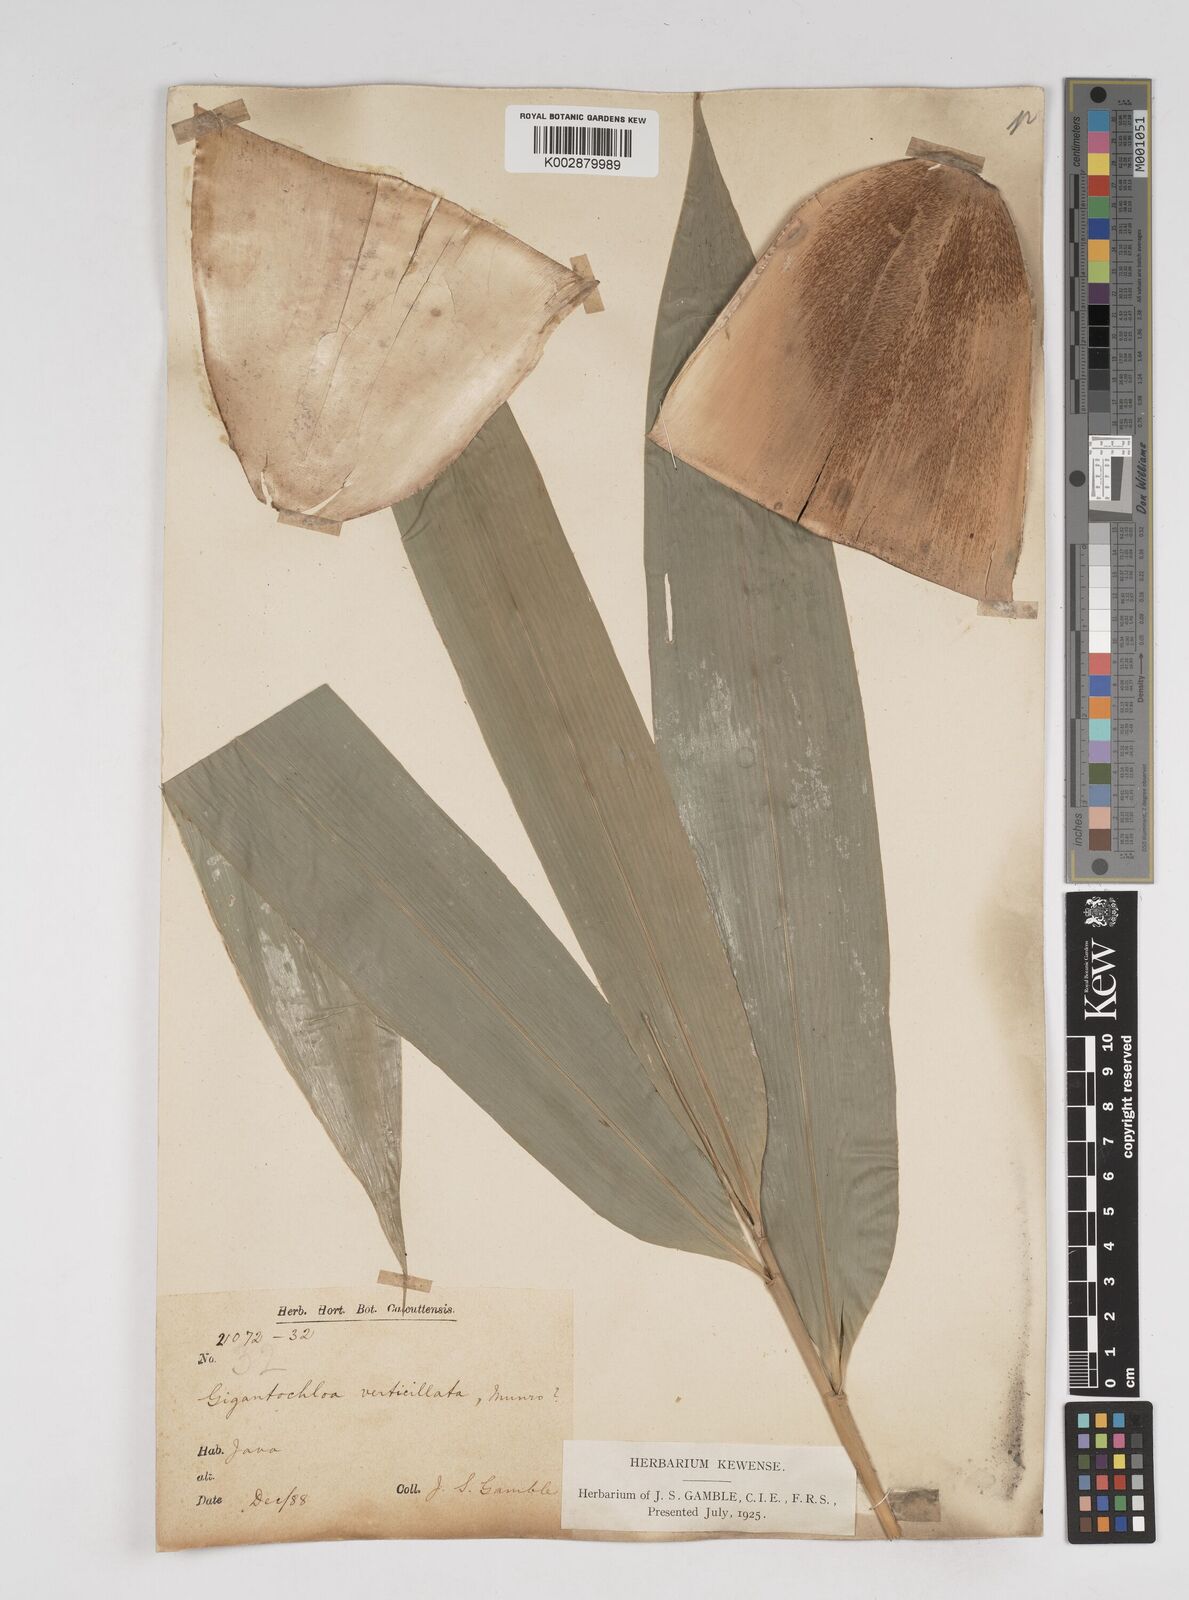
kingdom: Plantae
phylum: Tracheophyta
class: Liliopsida
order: Poales
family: Poaceae
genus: Gigantochloa
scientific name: Gigantochloa verticillata
